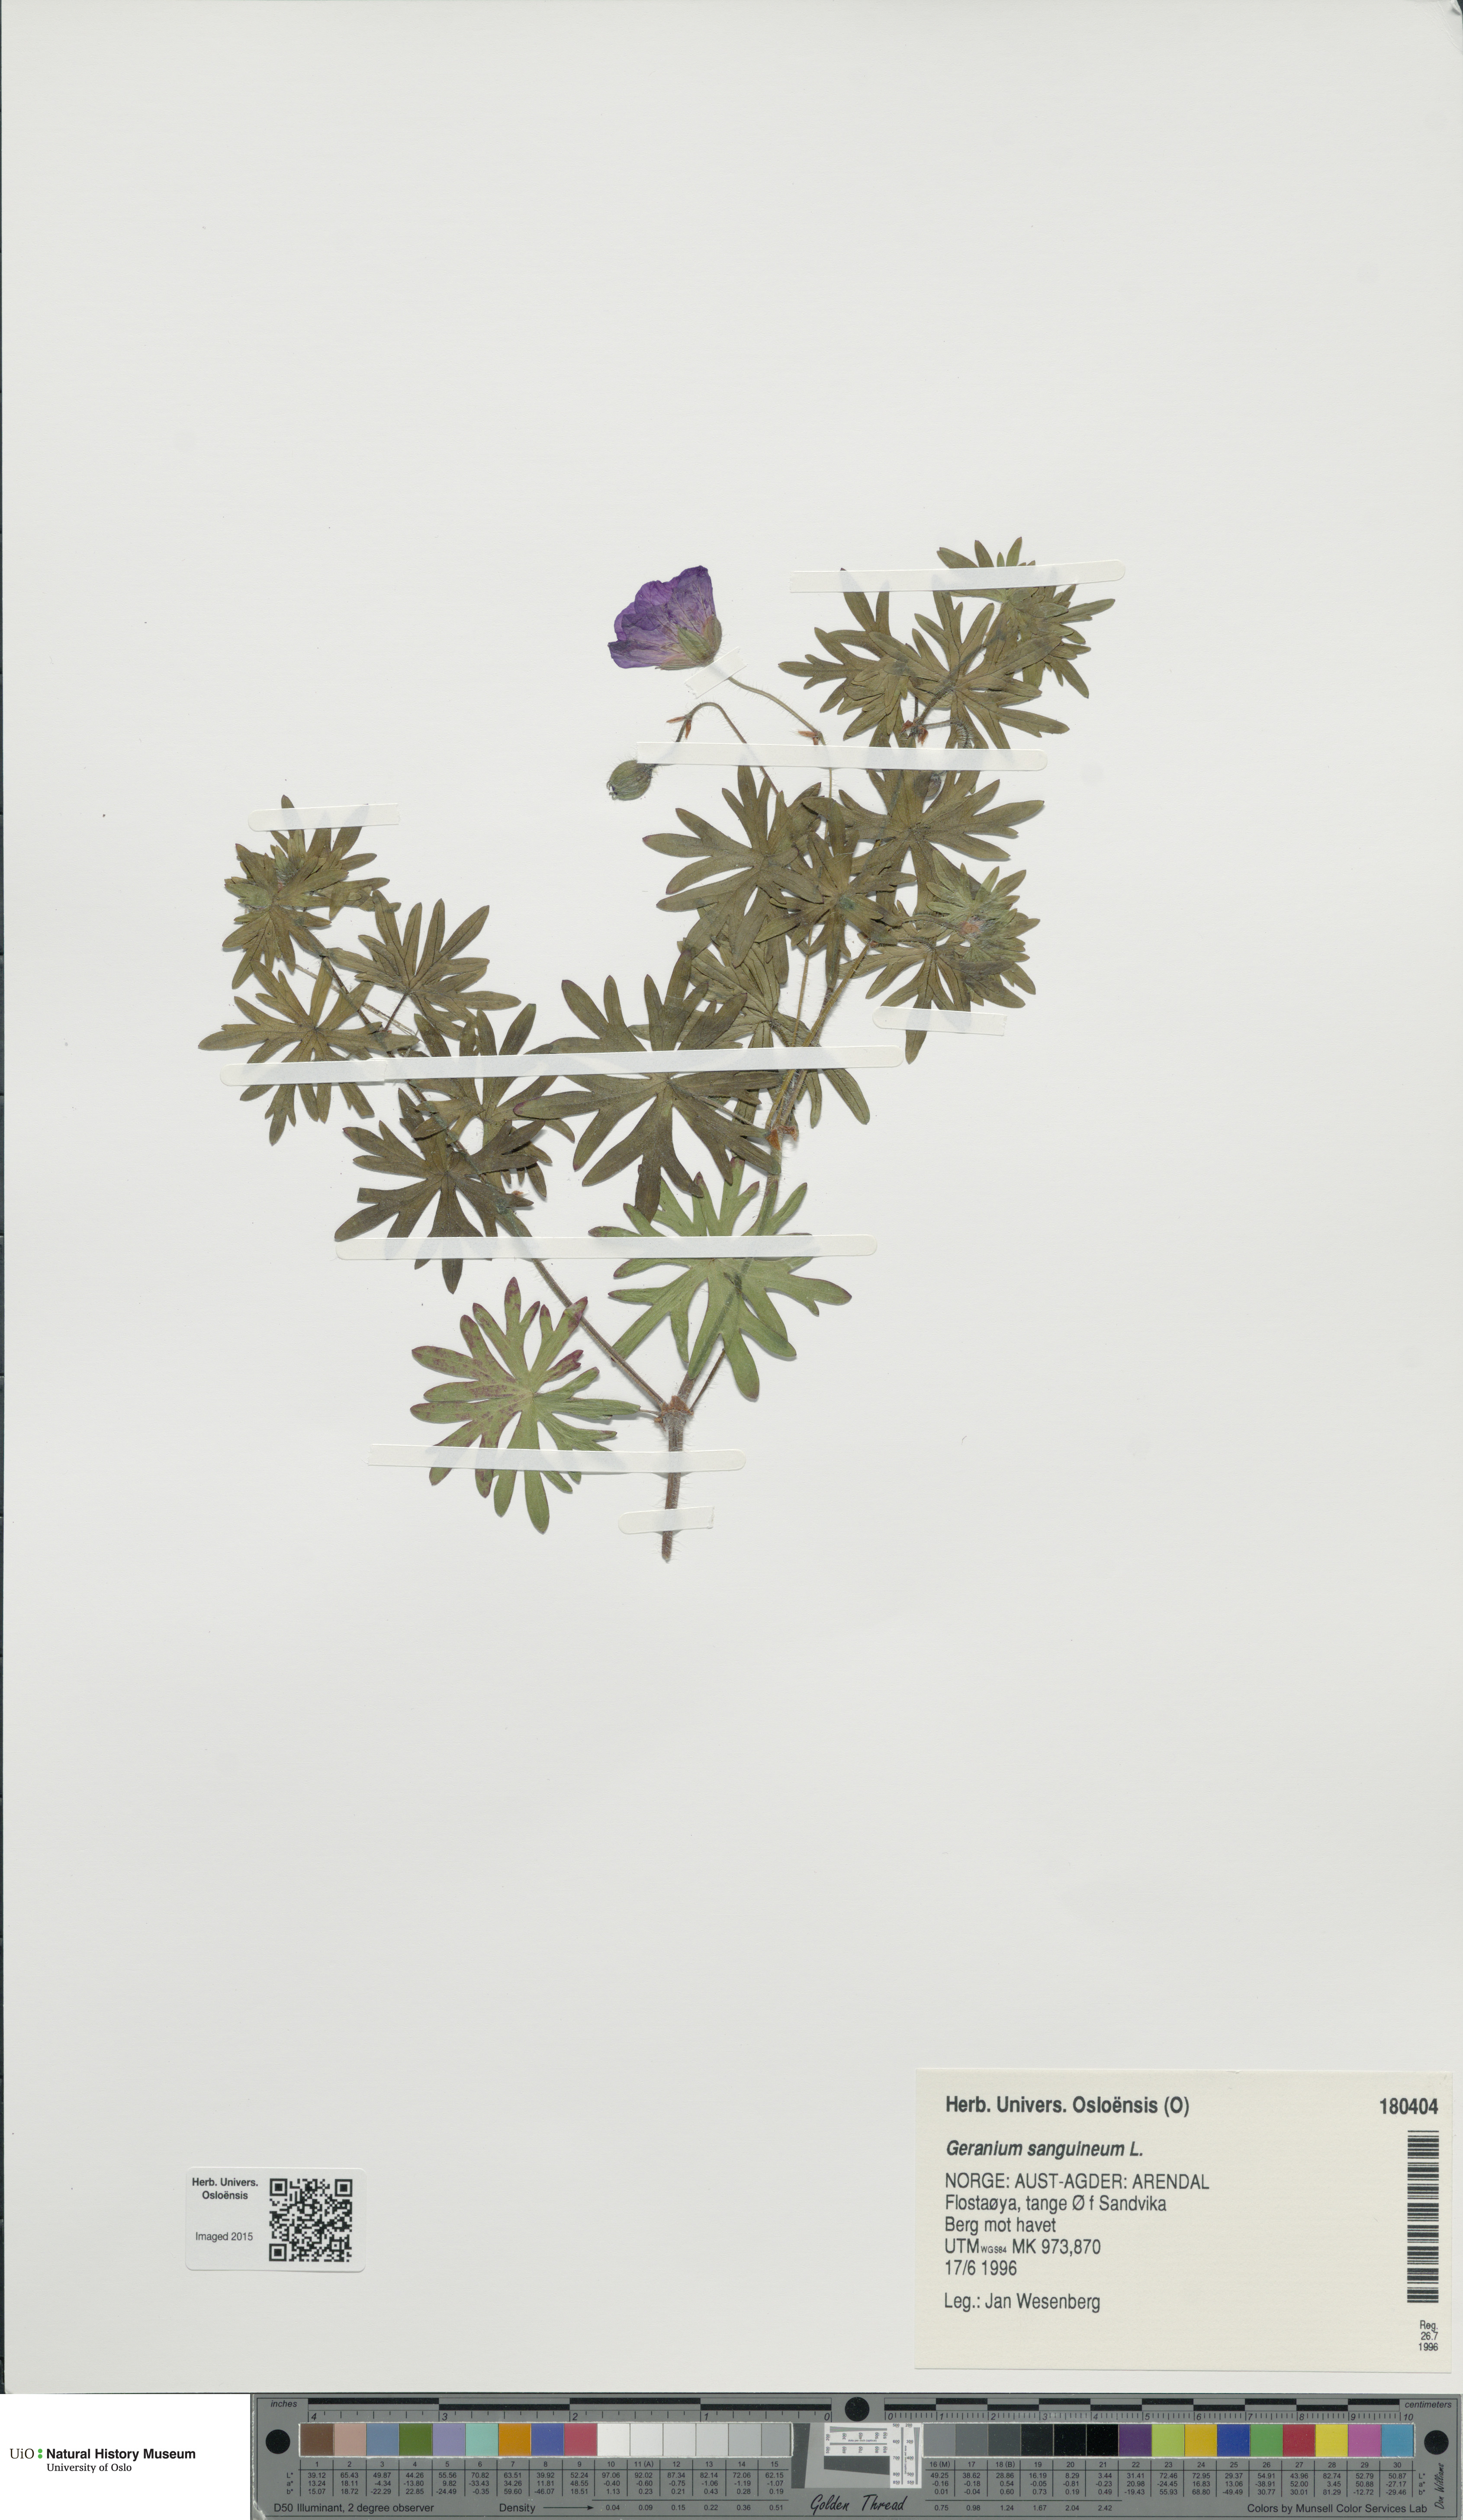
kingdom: Plantae
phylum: Tracheophyta
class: Magnoliopsida
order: Geraniales
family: Geraniaceae
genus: Geranium
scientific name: Geranium sanguineum
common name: Bloody crane's-bill
